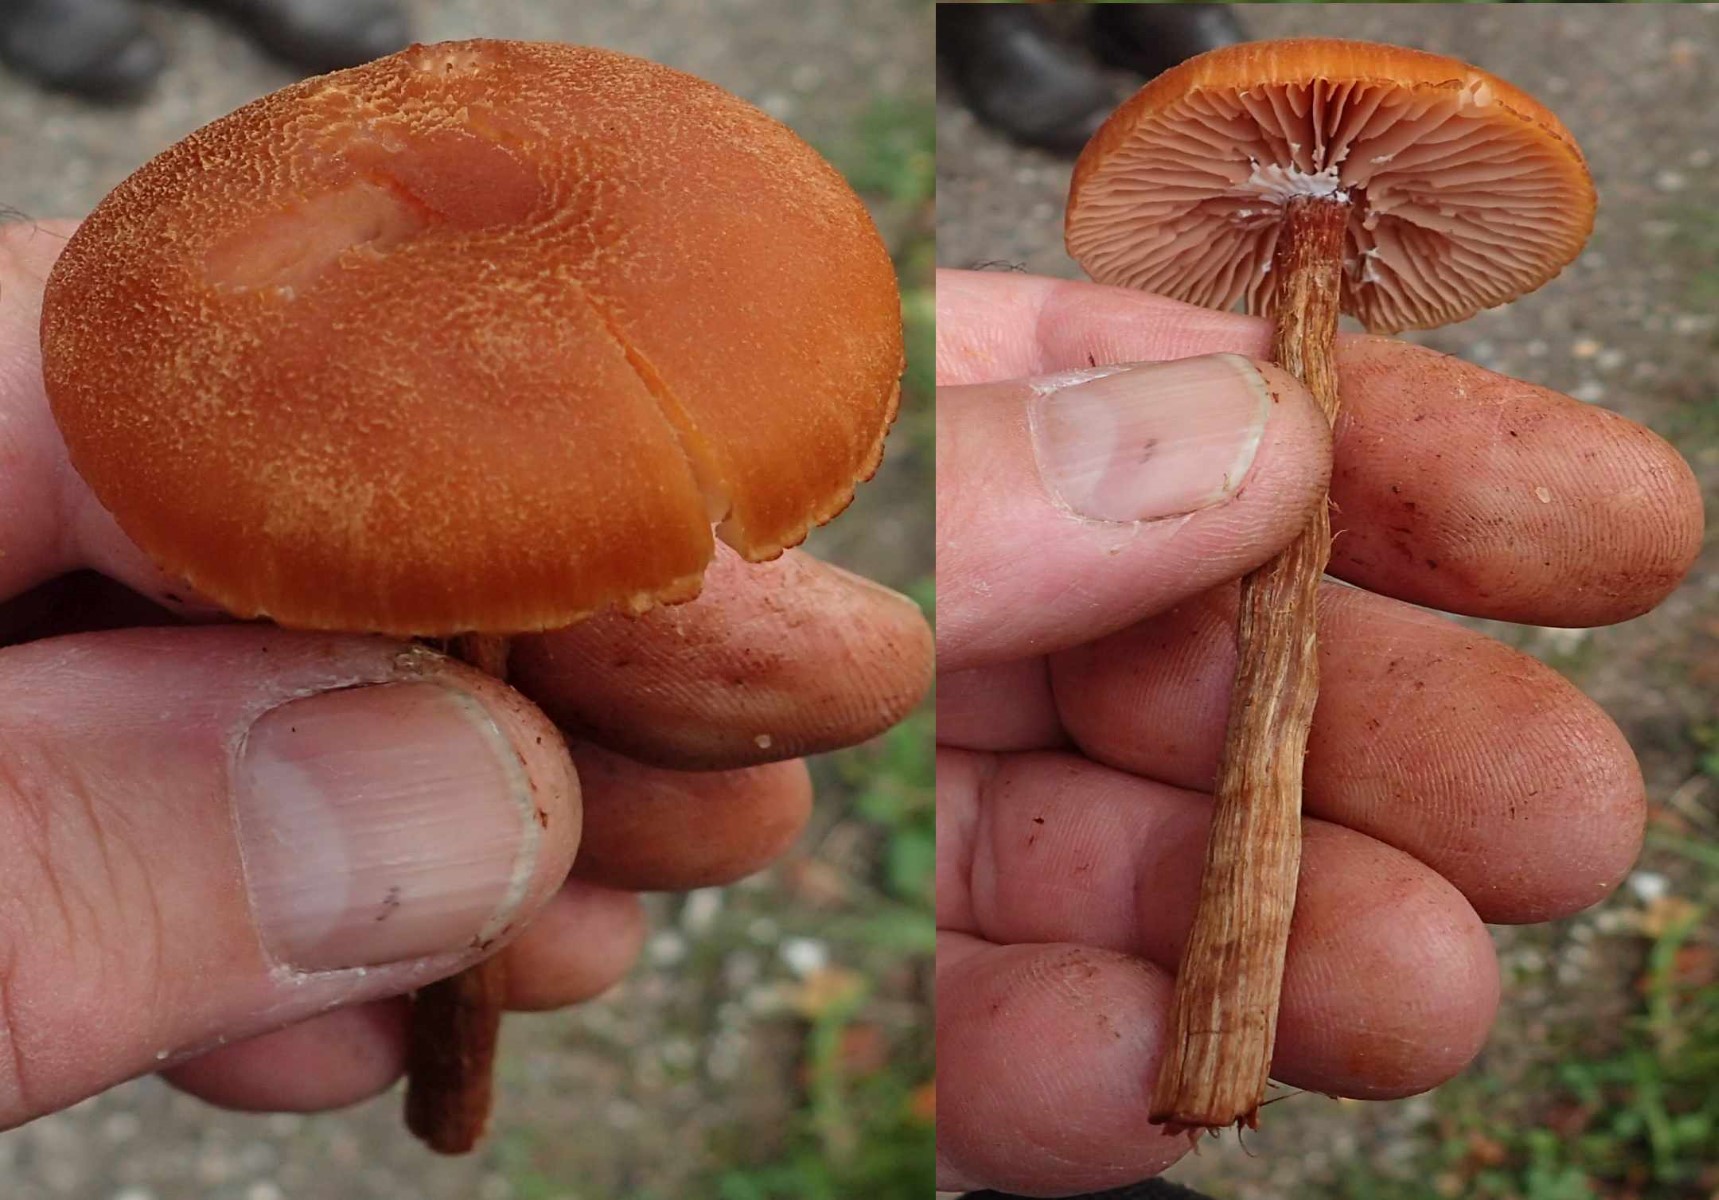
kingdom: Fungi
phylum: Basidiomycota
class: Agaricomycetes
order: Agaricales
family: Hydnangiaceae
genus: Laccaria
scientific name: Laccaria proxima
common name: stor ametysthat
